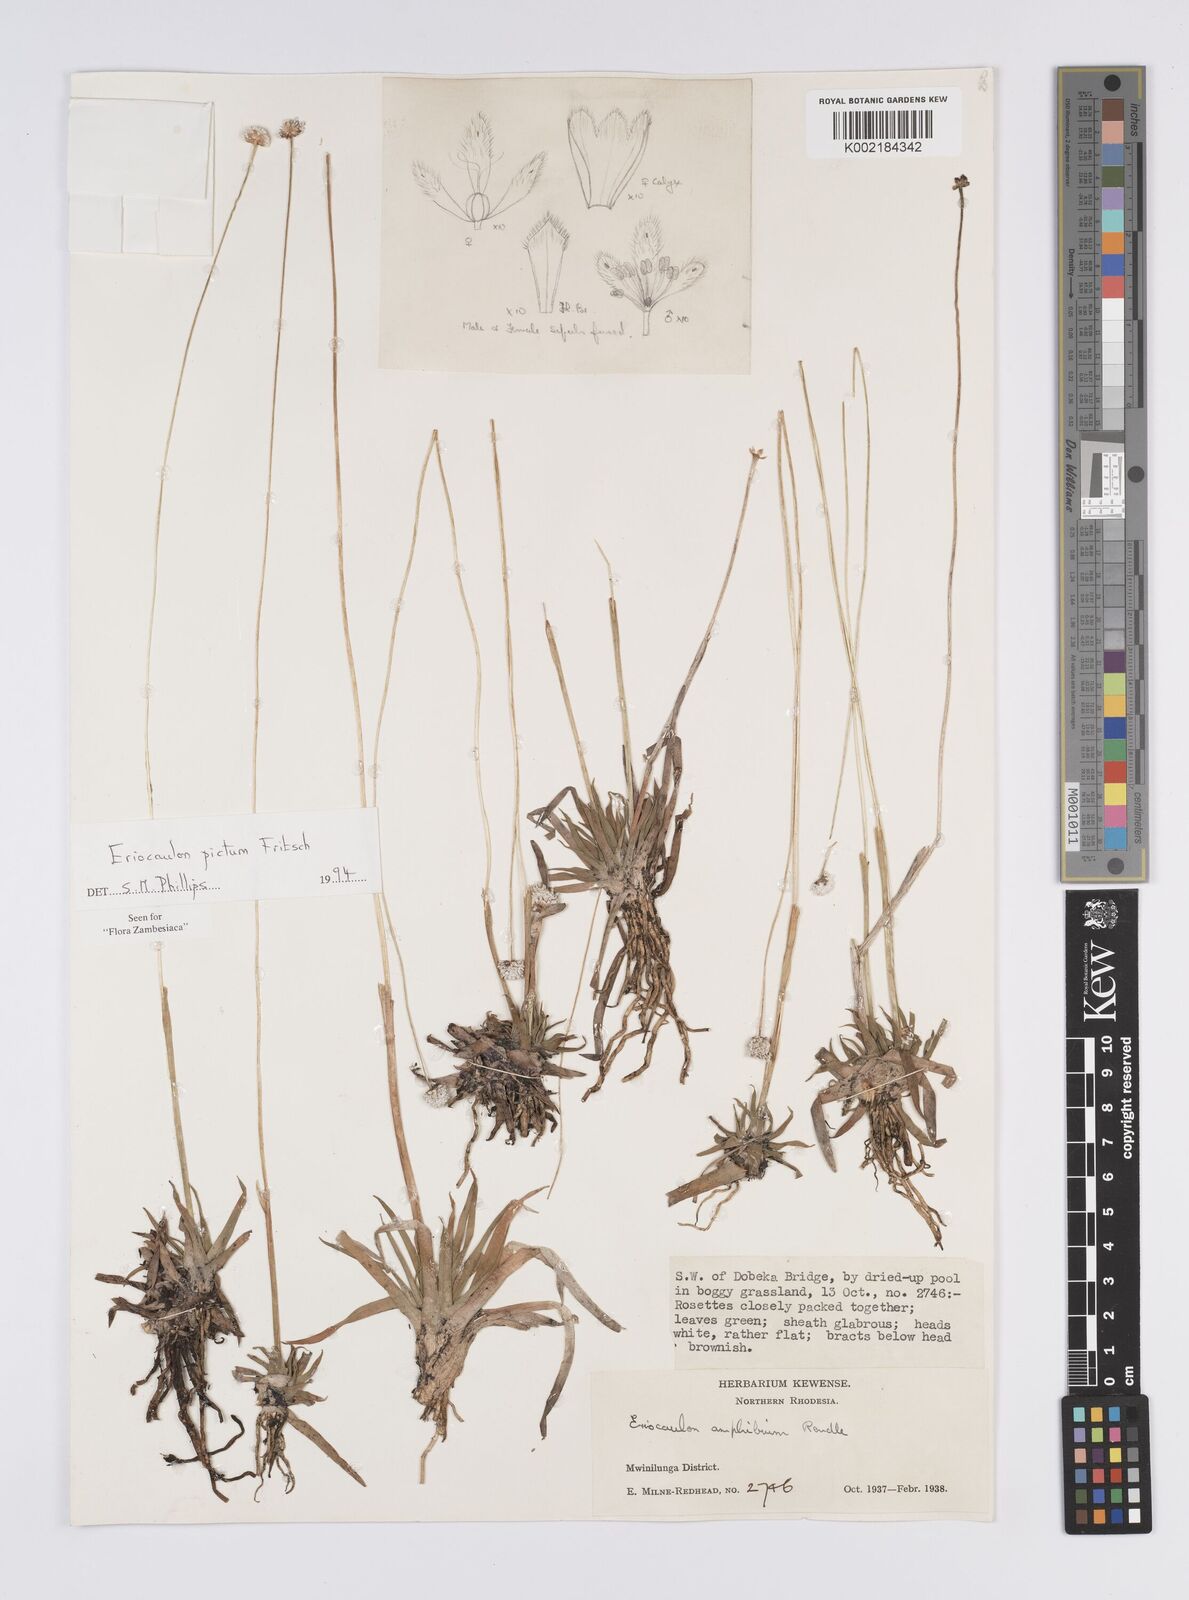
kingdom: Plantae
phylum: Tracheophyta
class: Liliopsida
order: Poales
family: Eriocaulaceae
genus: Eriocaulon
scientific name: Eriocaulon pictum
